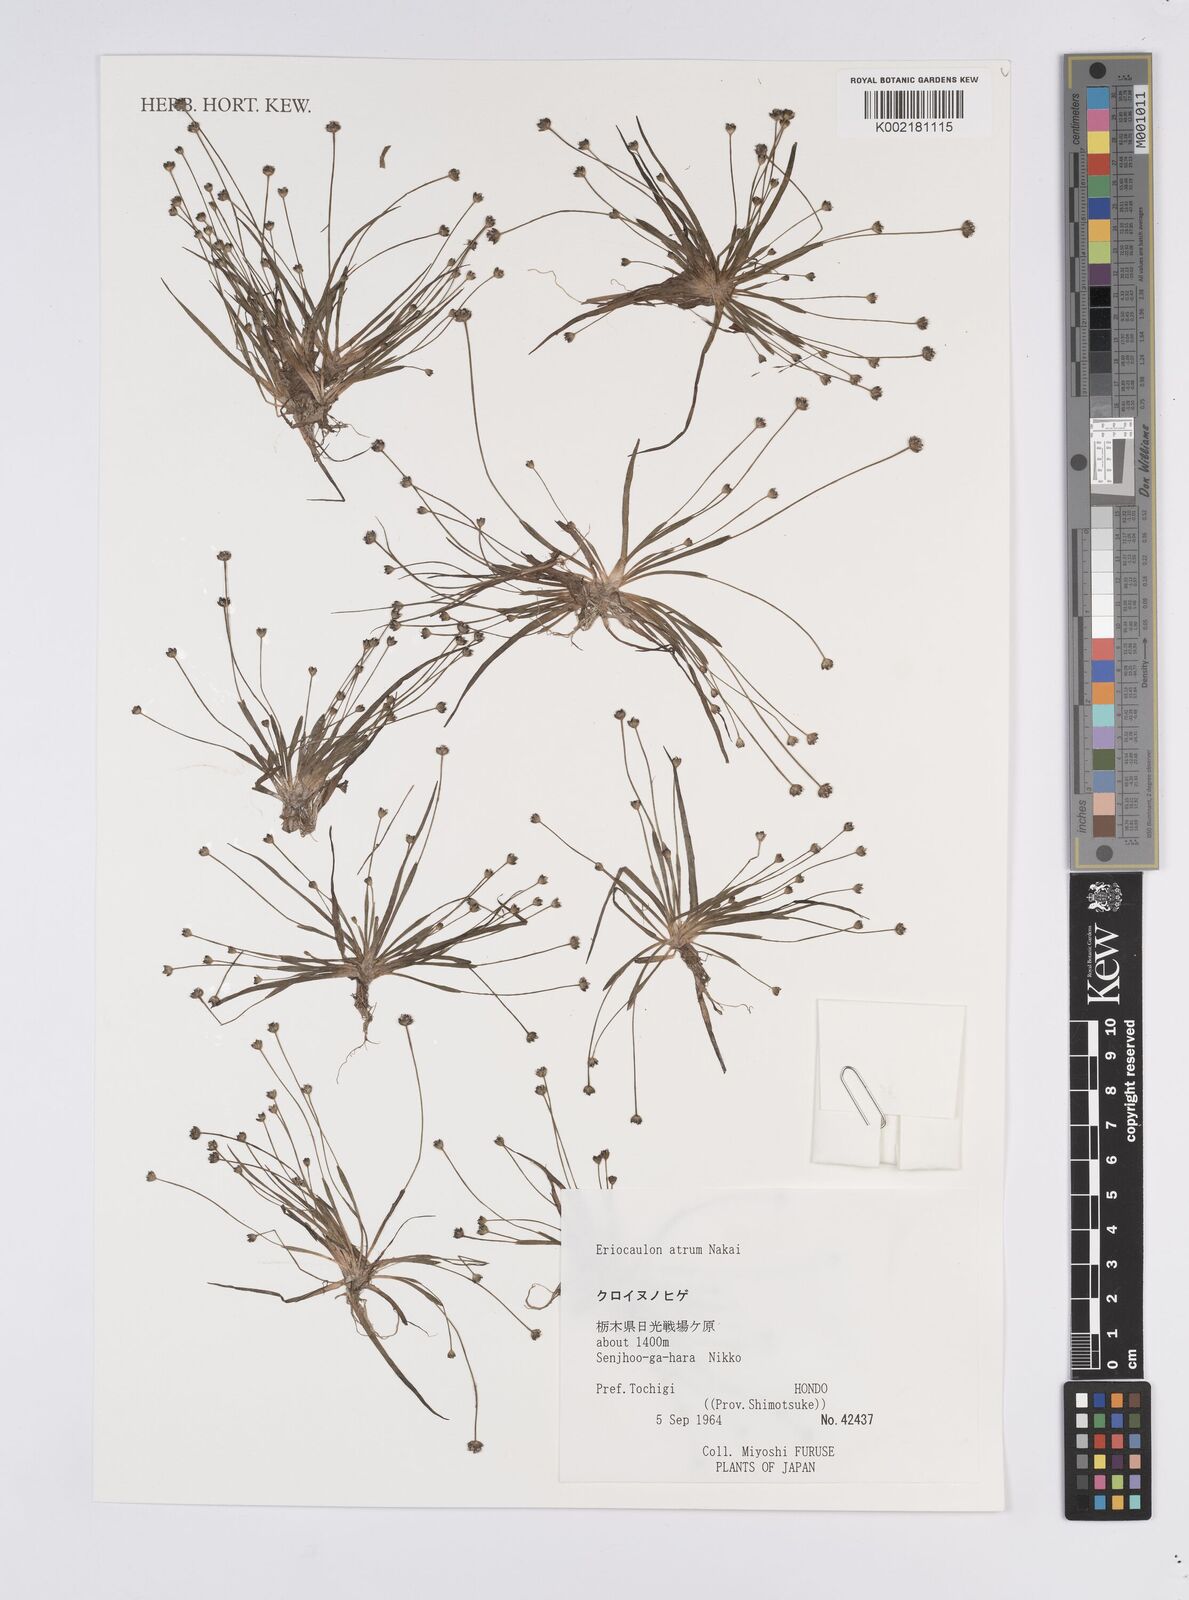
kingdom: Plantae
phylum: Tracheophyta
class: Liliopsida
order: Poales
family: Eriocaulaceae
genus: Eriocaulon
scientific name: Eriocaulon atrum
